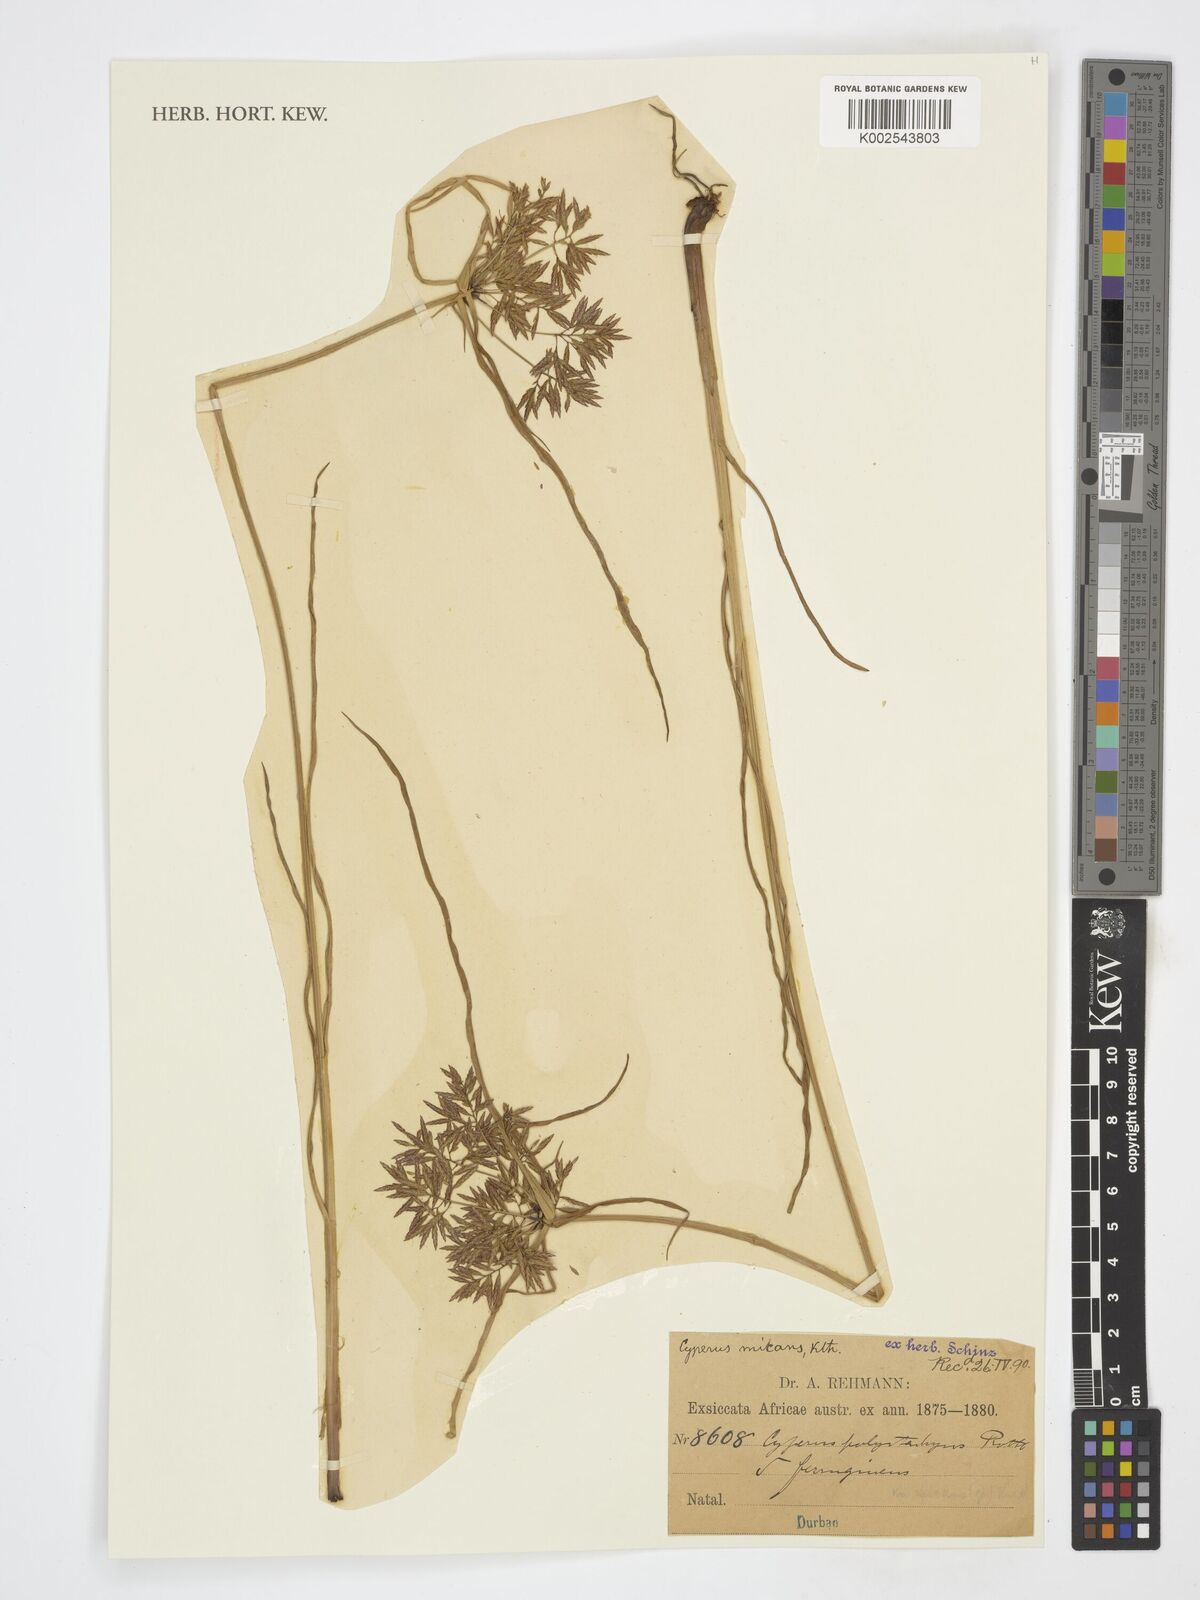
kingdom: Plantae
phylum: Tracheophyta
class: Liliopsida
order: Poales
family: Cyperaceae
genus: Cyperus
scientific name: Cyperus
